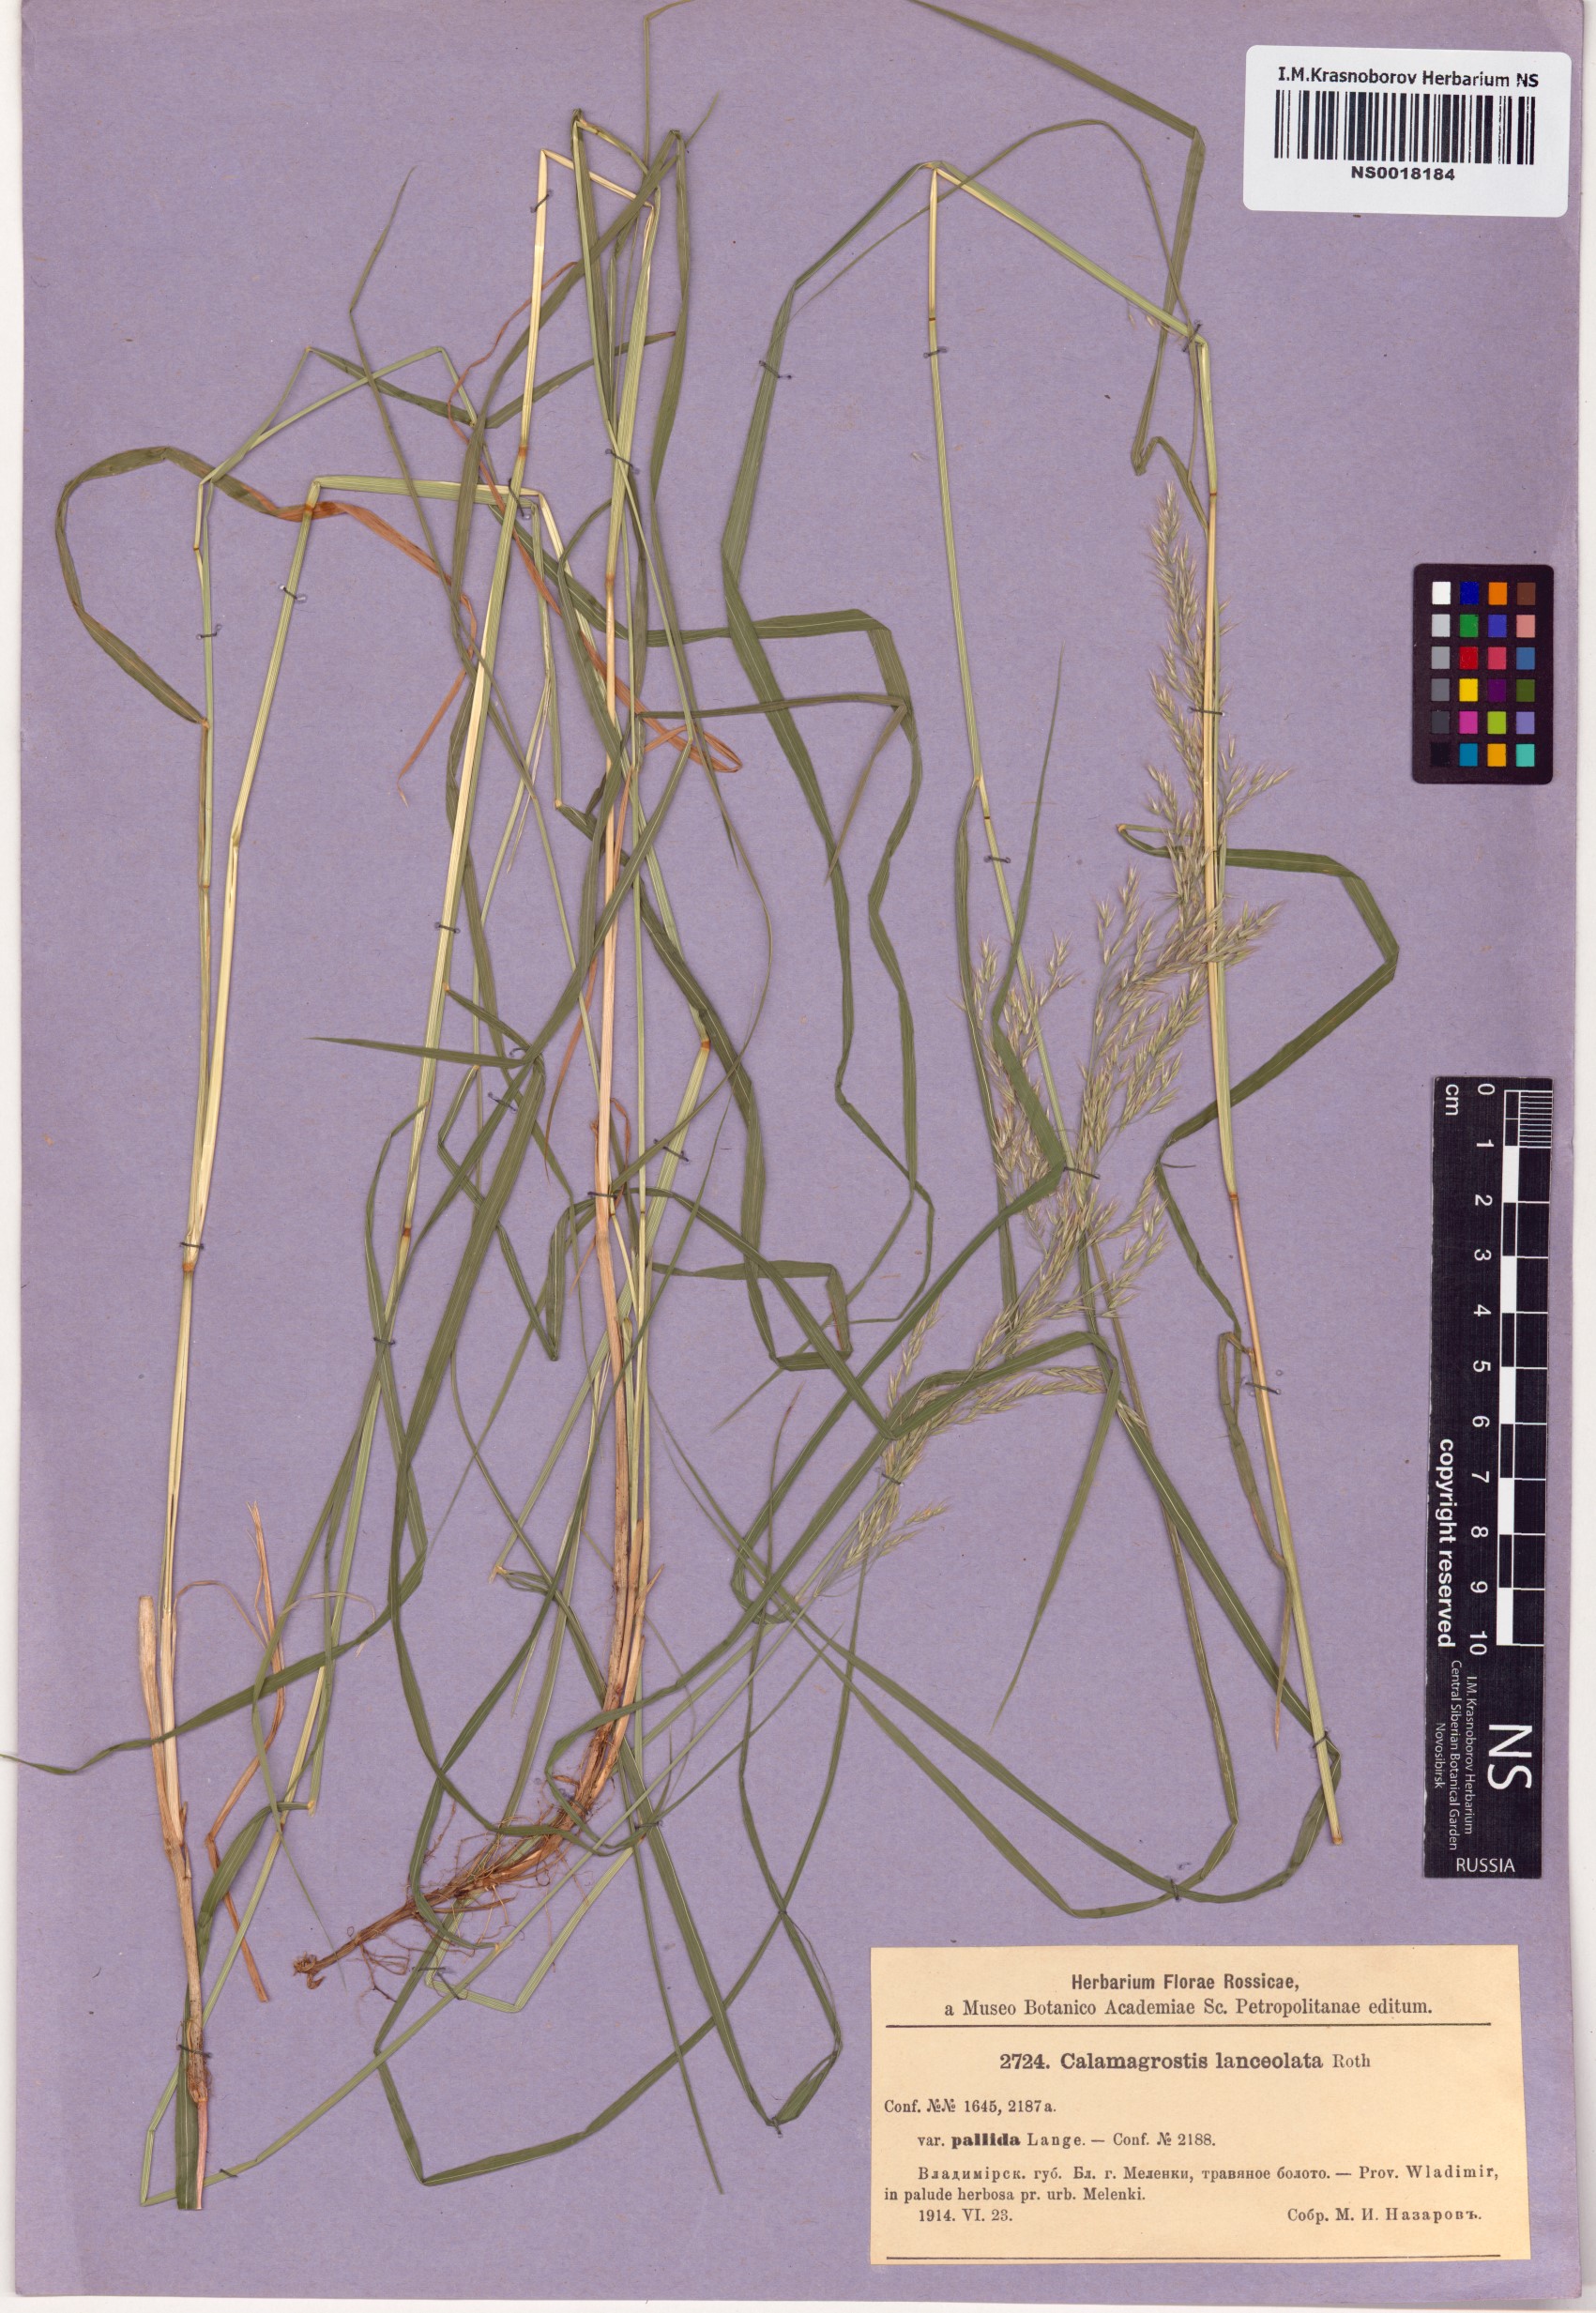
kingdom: Plantae
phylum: Tracheophyta
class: Liliopsida
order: Poales
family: Poaceae
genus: Calamagrostis
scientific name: Calamagrostis canescens
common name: Purple small-reed
